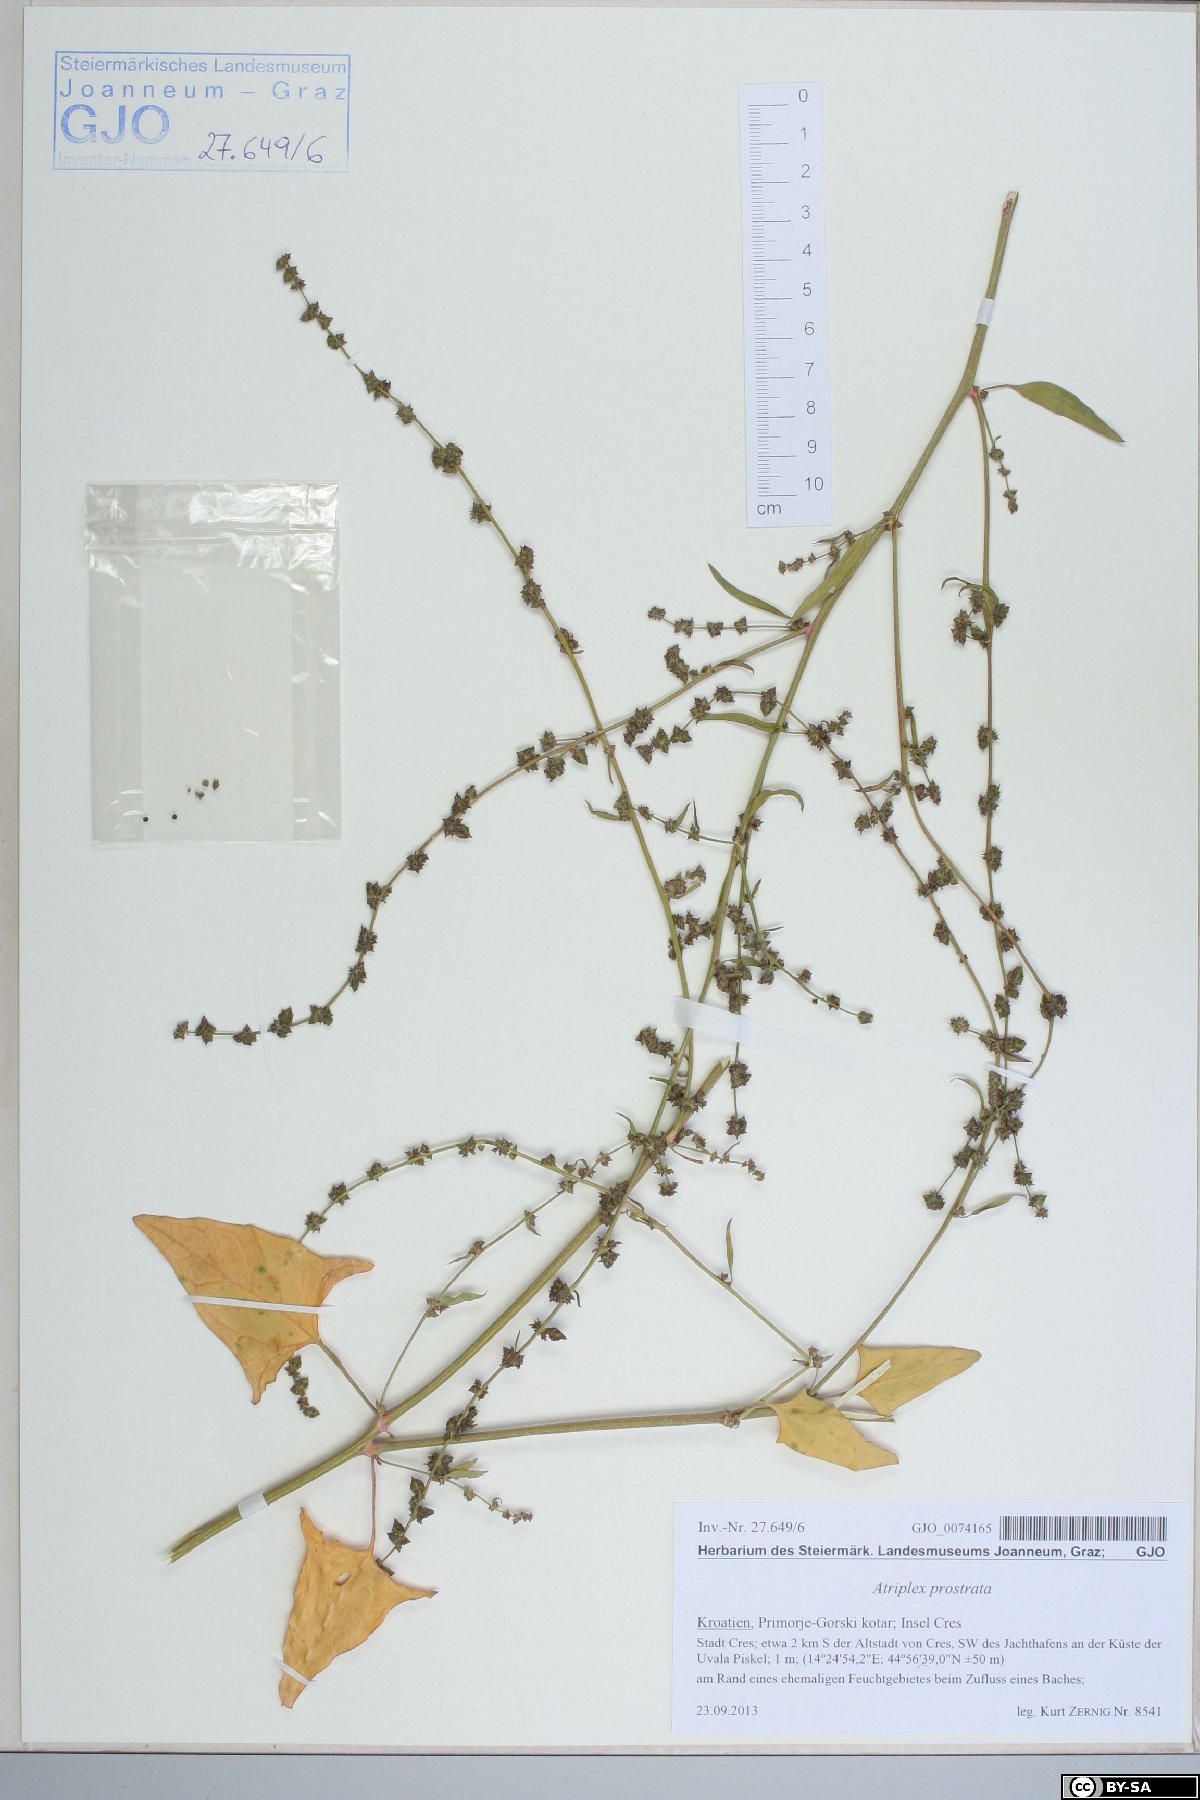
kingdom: Plantae
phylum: Tracheophyta
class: Magnoliopsida
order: Caryophyllales
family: Amaranthaceae
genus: Atriplex
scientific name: Atriplex prostrata
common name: Spear-leaved orache
